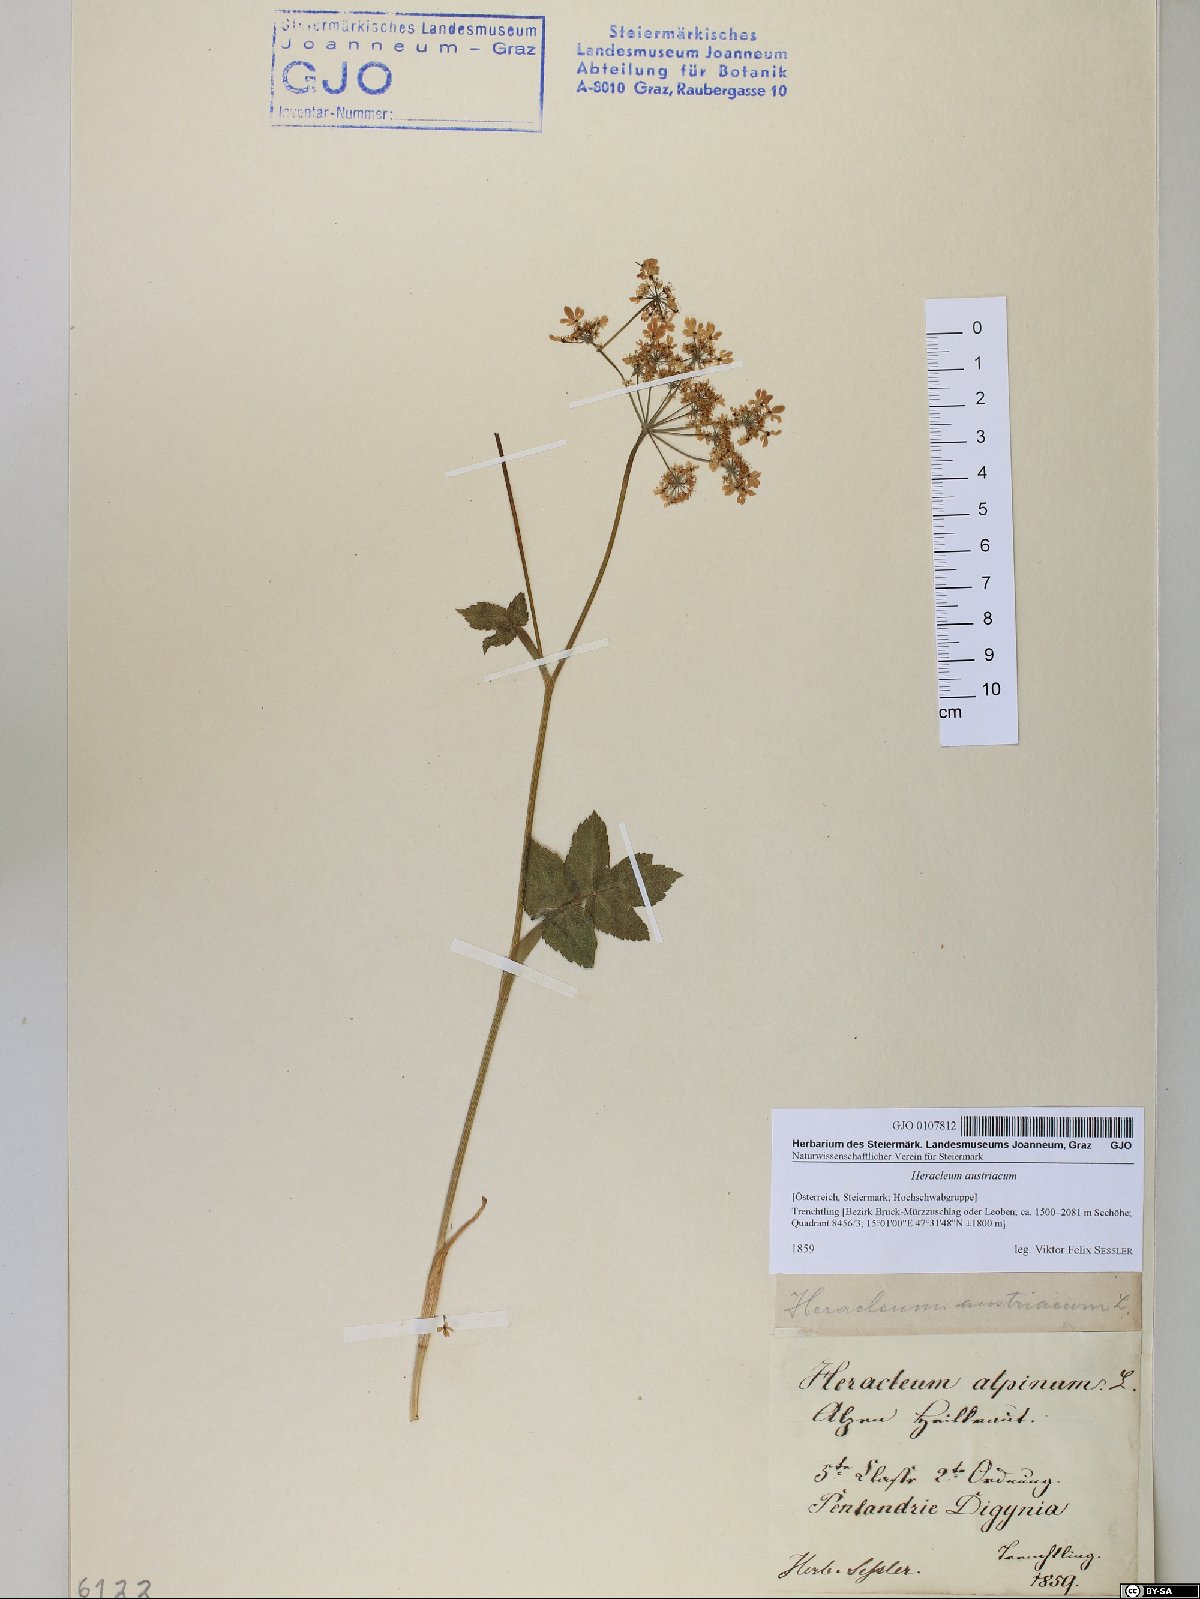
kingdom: Plantae
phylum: Tracheophyta
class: Magnoliopsida
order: Apiales
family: Apiaceae
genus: Heracleum
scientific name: Heracleum austriacum
